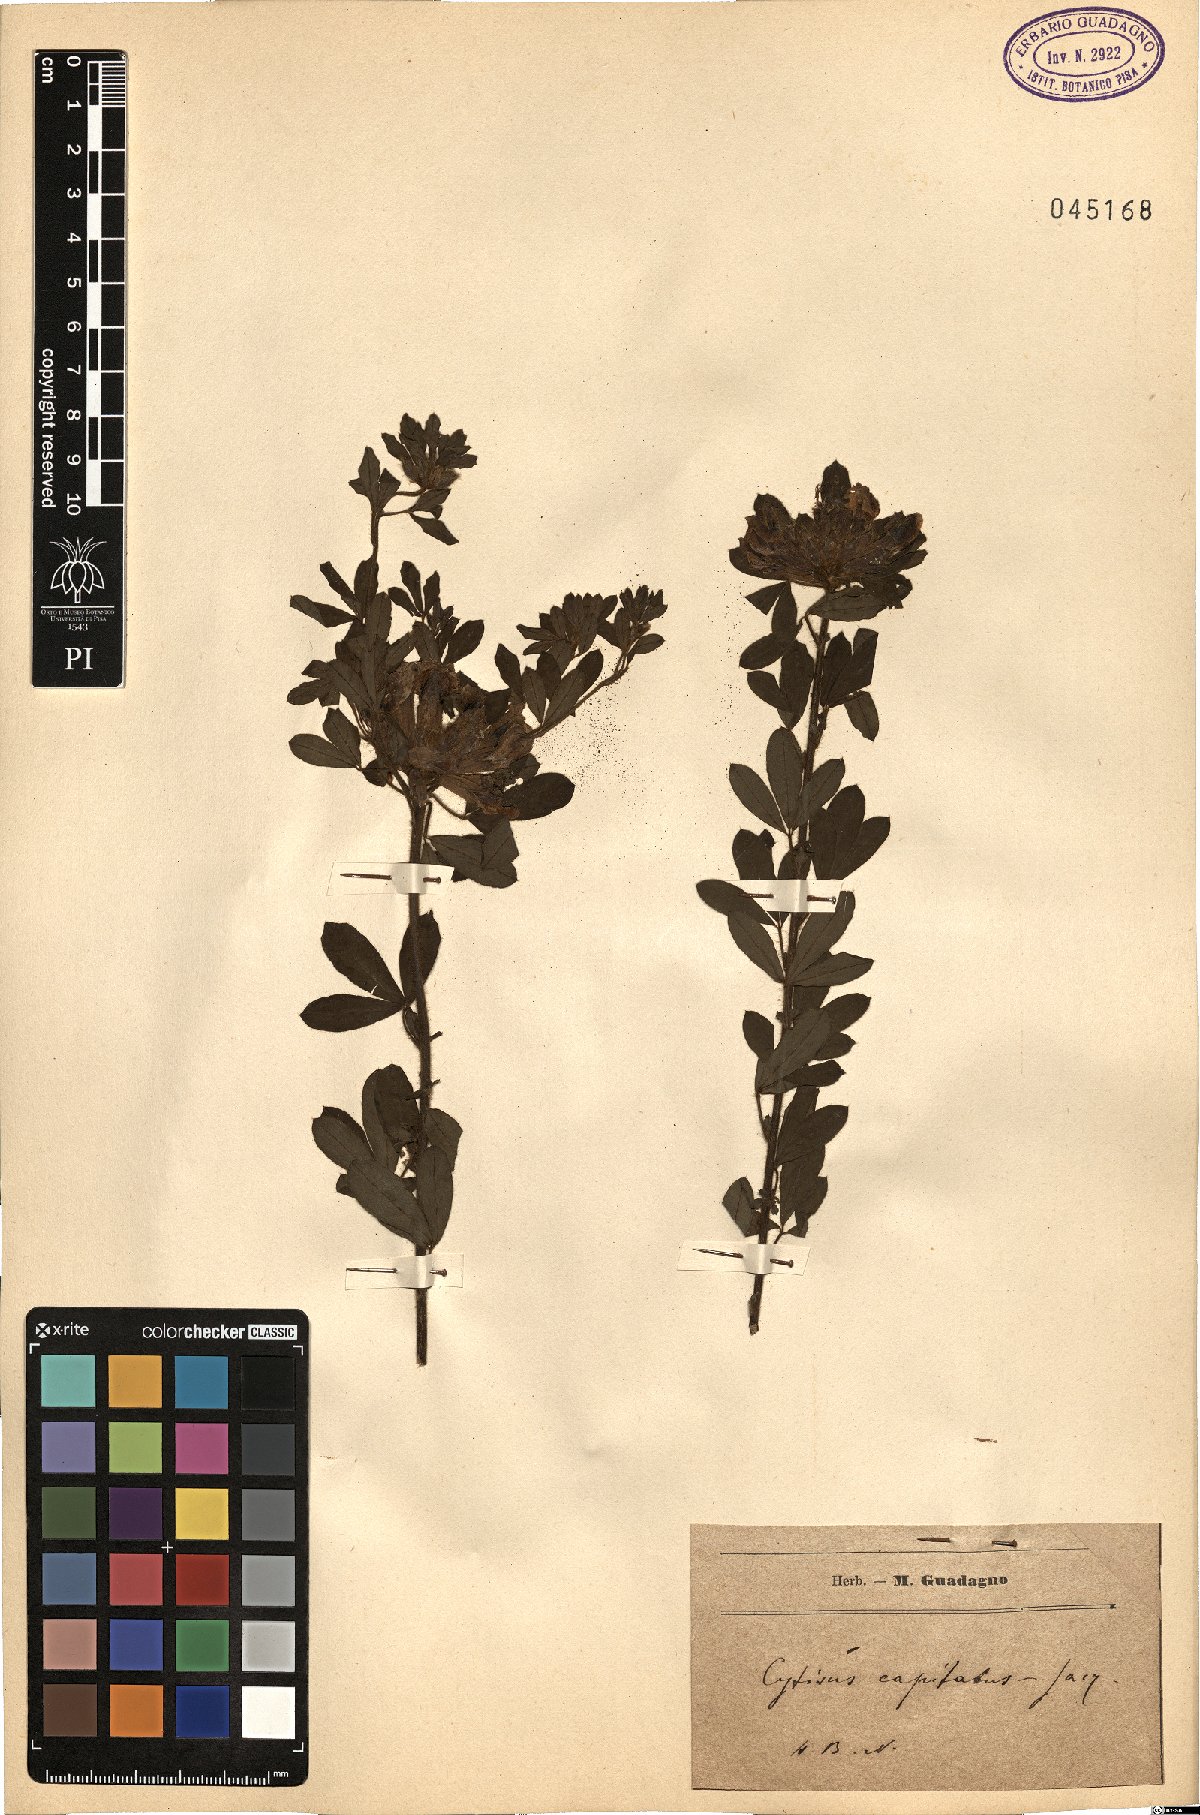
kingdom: Plantae
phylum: Tracheophyta
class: Magnoliopsida
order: Fabales
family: Fabaceae
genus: Chamaecytisus
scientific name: Chamaecytisus hirsutus
